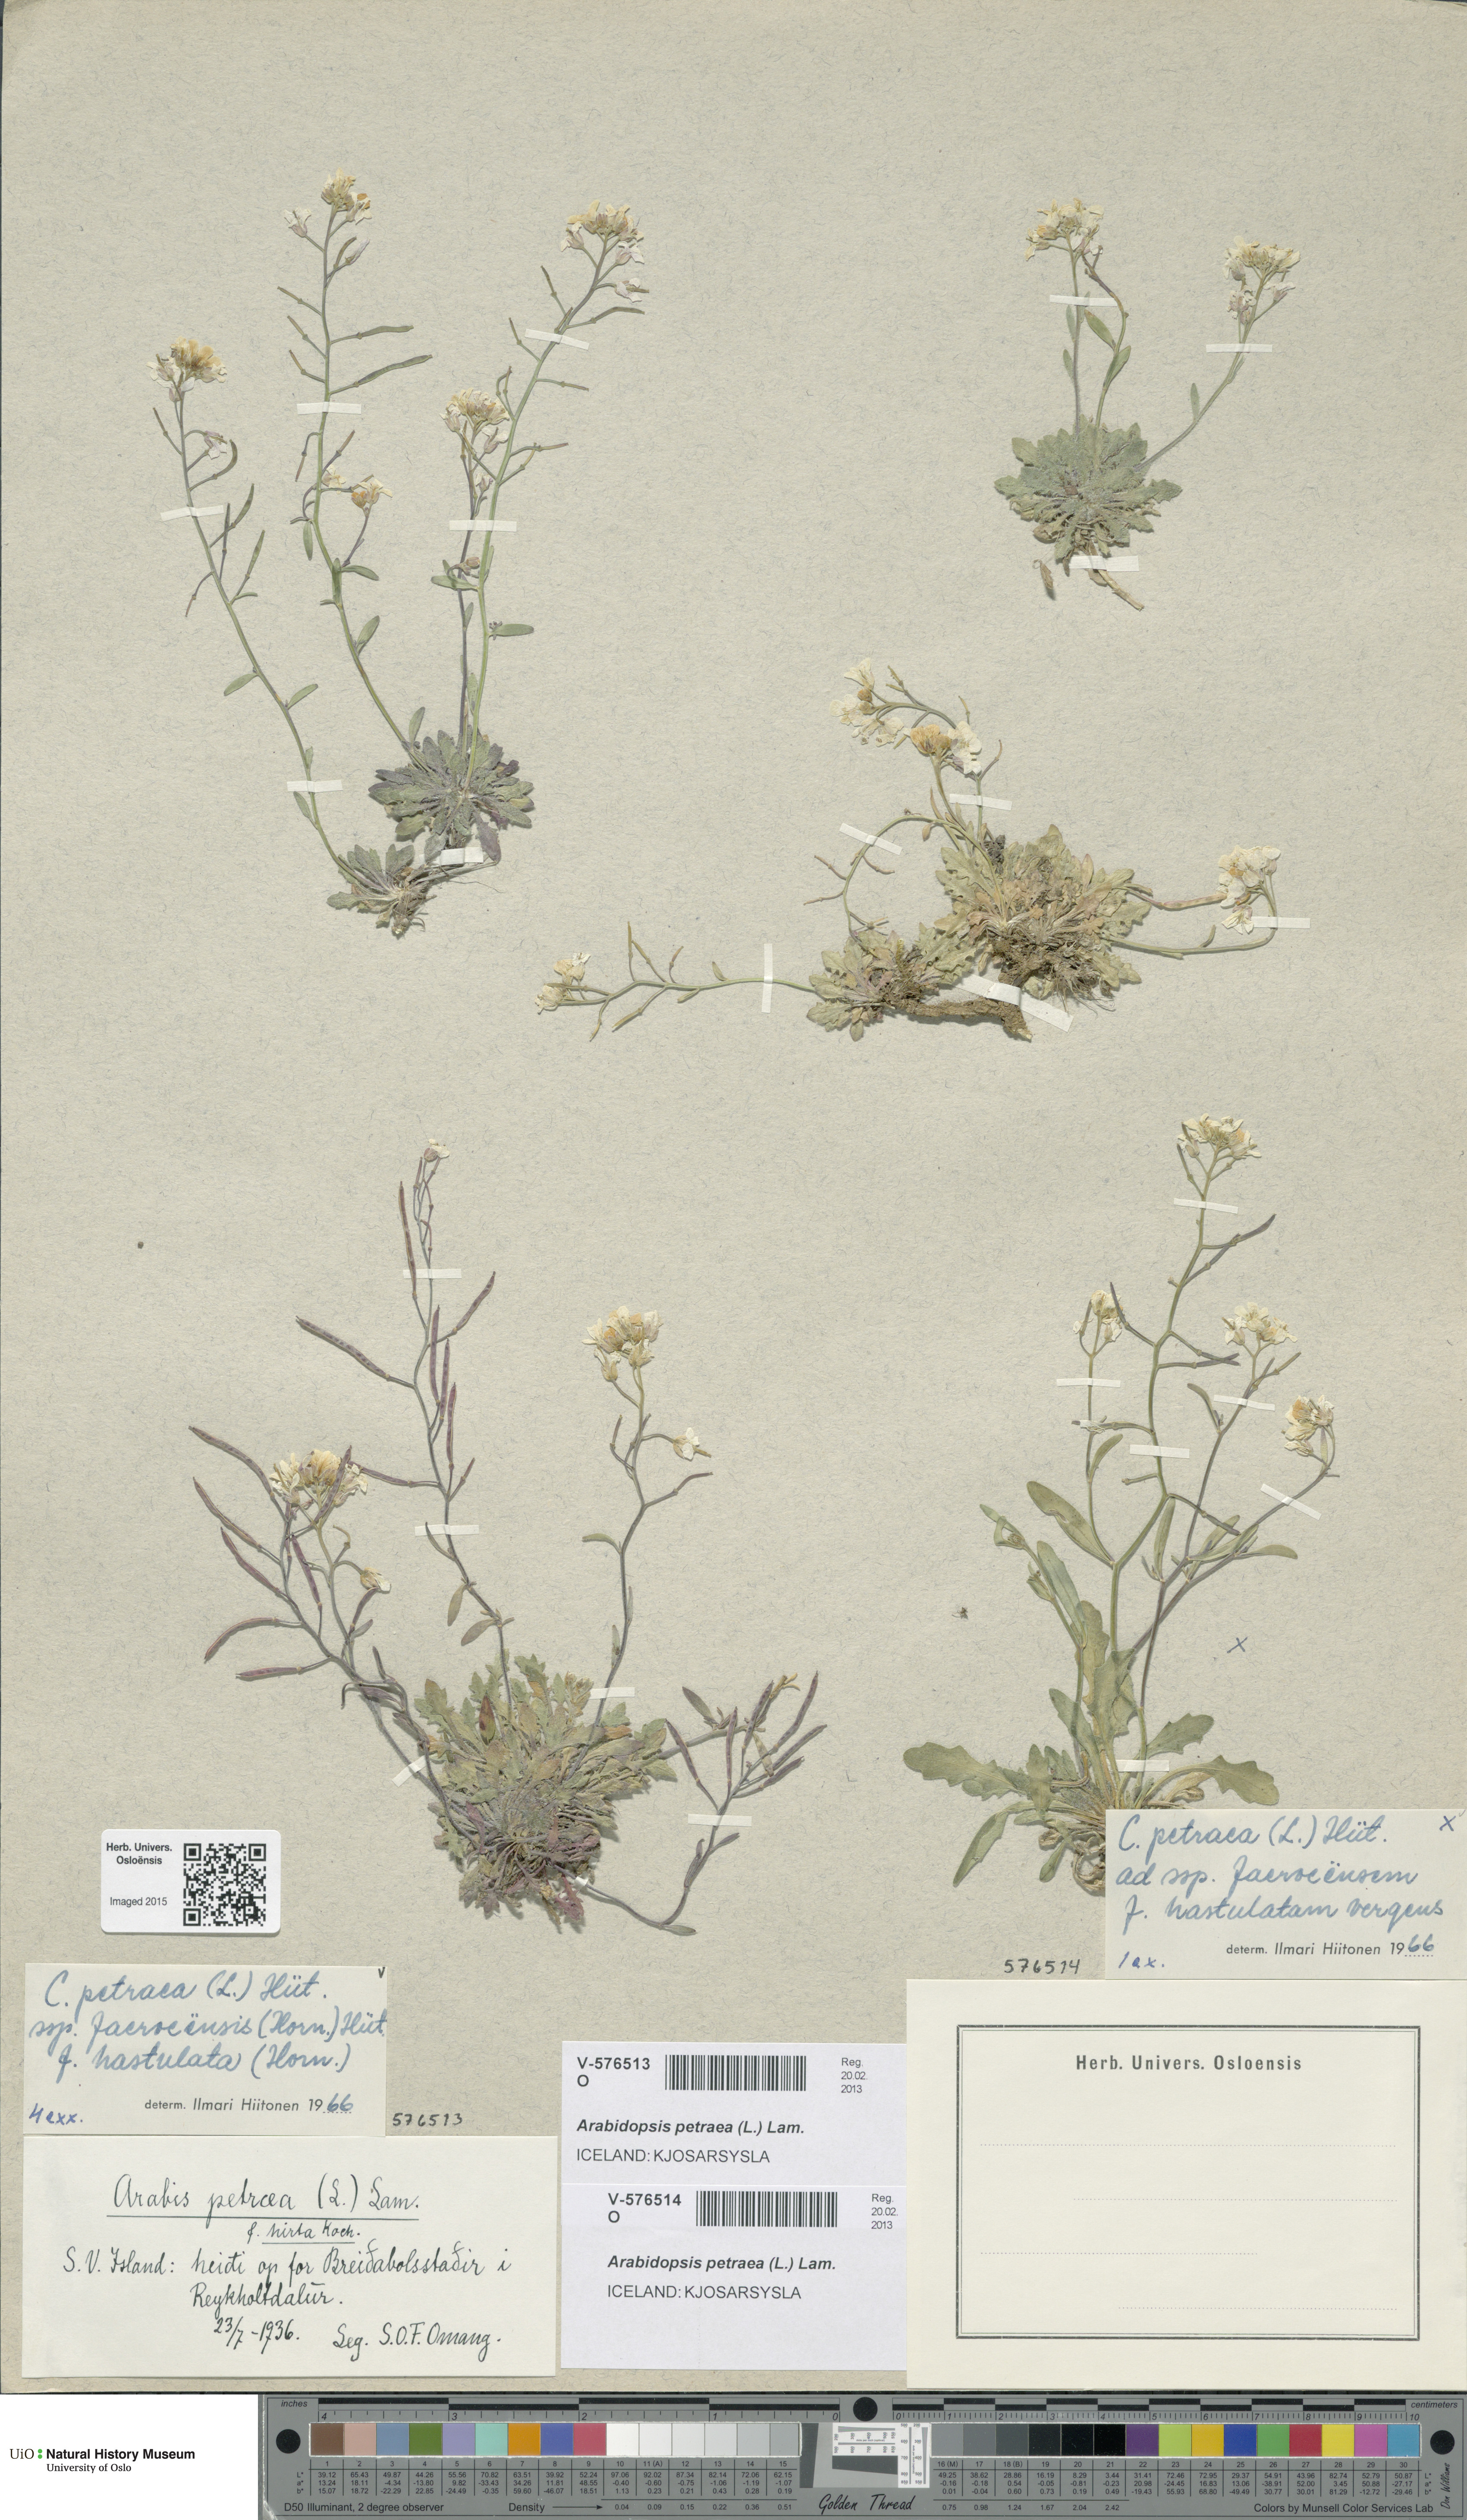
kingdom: Plantae
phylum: Tracheophyta
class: Magnoliopsida
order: Brassicales
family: Brassicaceae
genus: Arabidopsis
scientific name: Arabidopsis petraea
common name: Northern rock-cress
